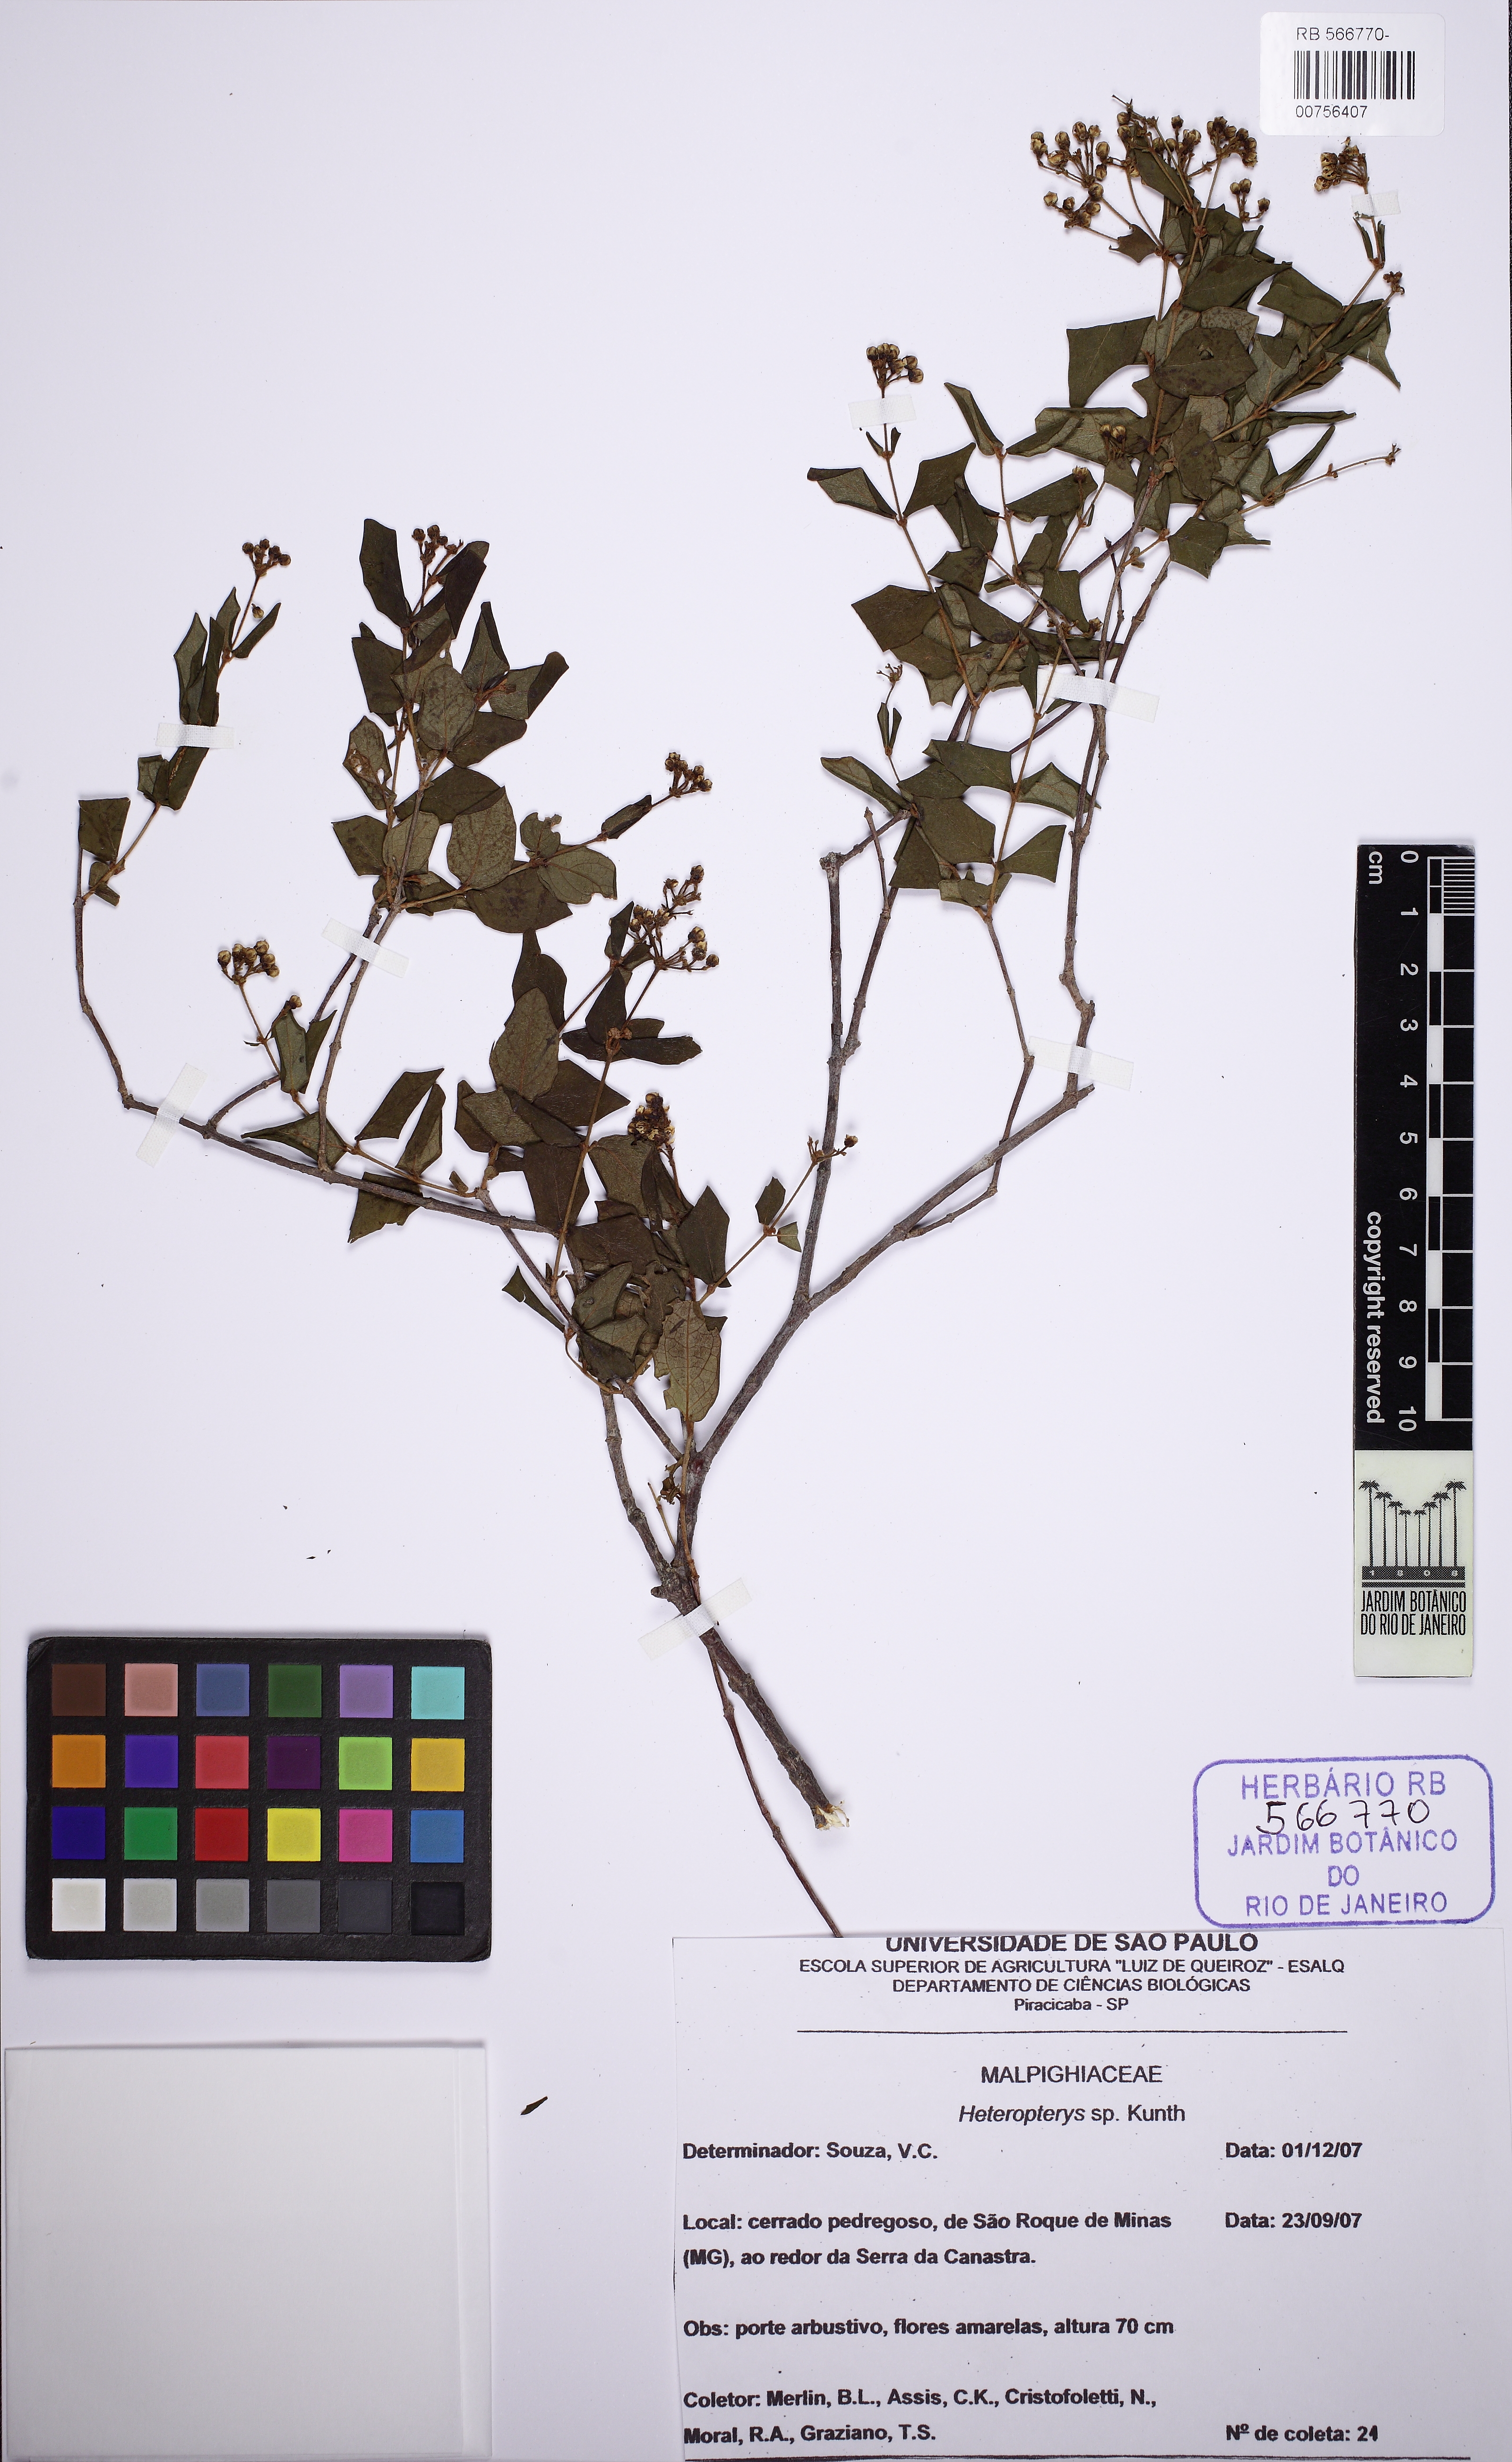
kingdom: Plantae
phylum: Tracheophyta
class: Magnoliopsida
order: Malpighiales
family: Malpighiaceae
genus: Heteropterys
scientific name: Heteropterys
